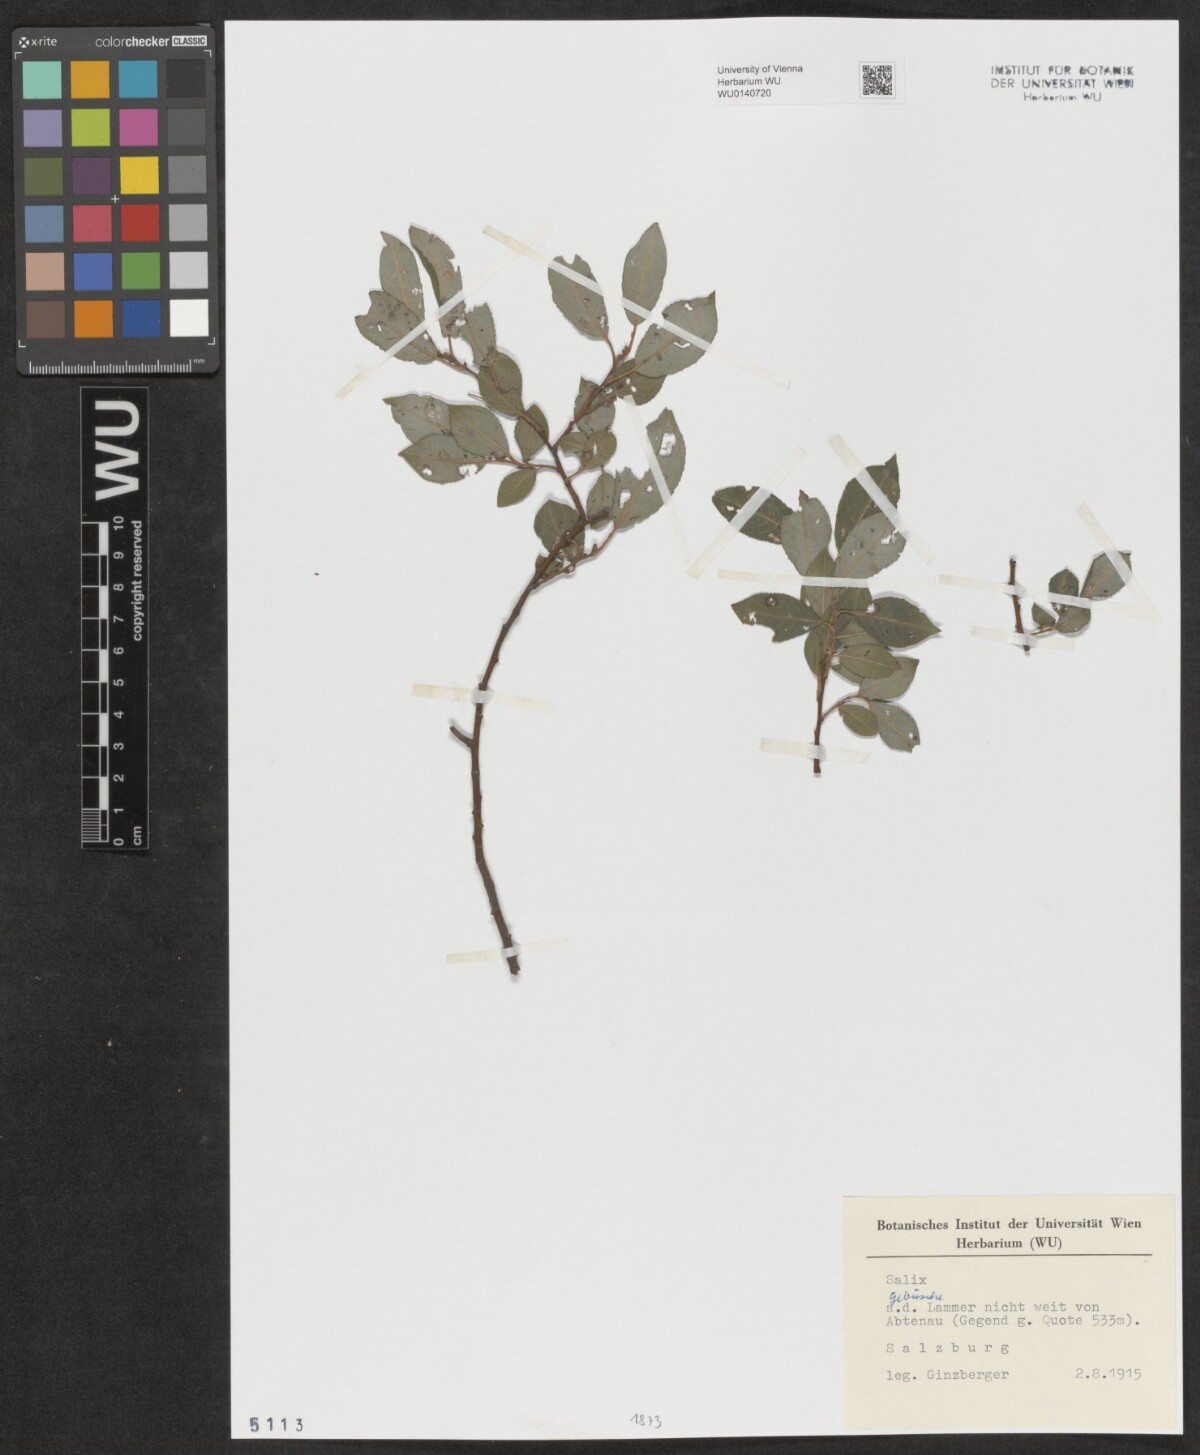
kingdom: Plantae
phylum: Tracheophyta
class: Magnoliopsida
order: Malpighiales
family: Salicaceae
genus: Salix
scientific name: Salix
